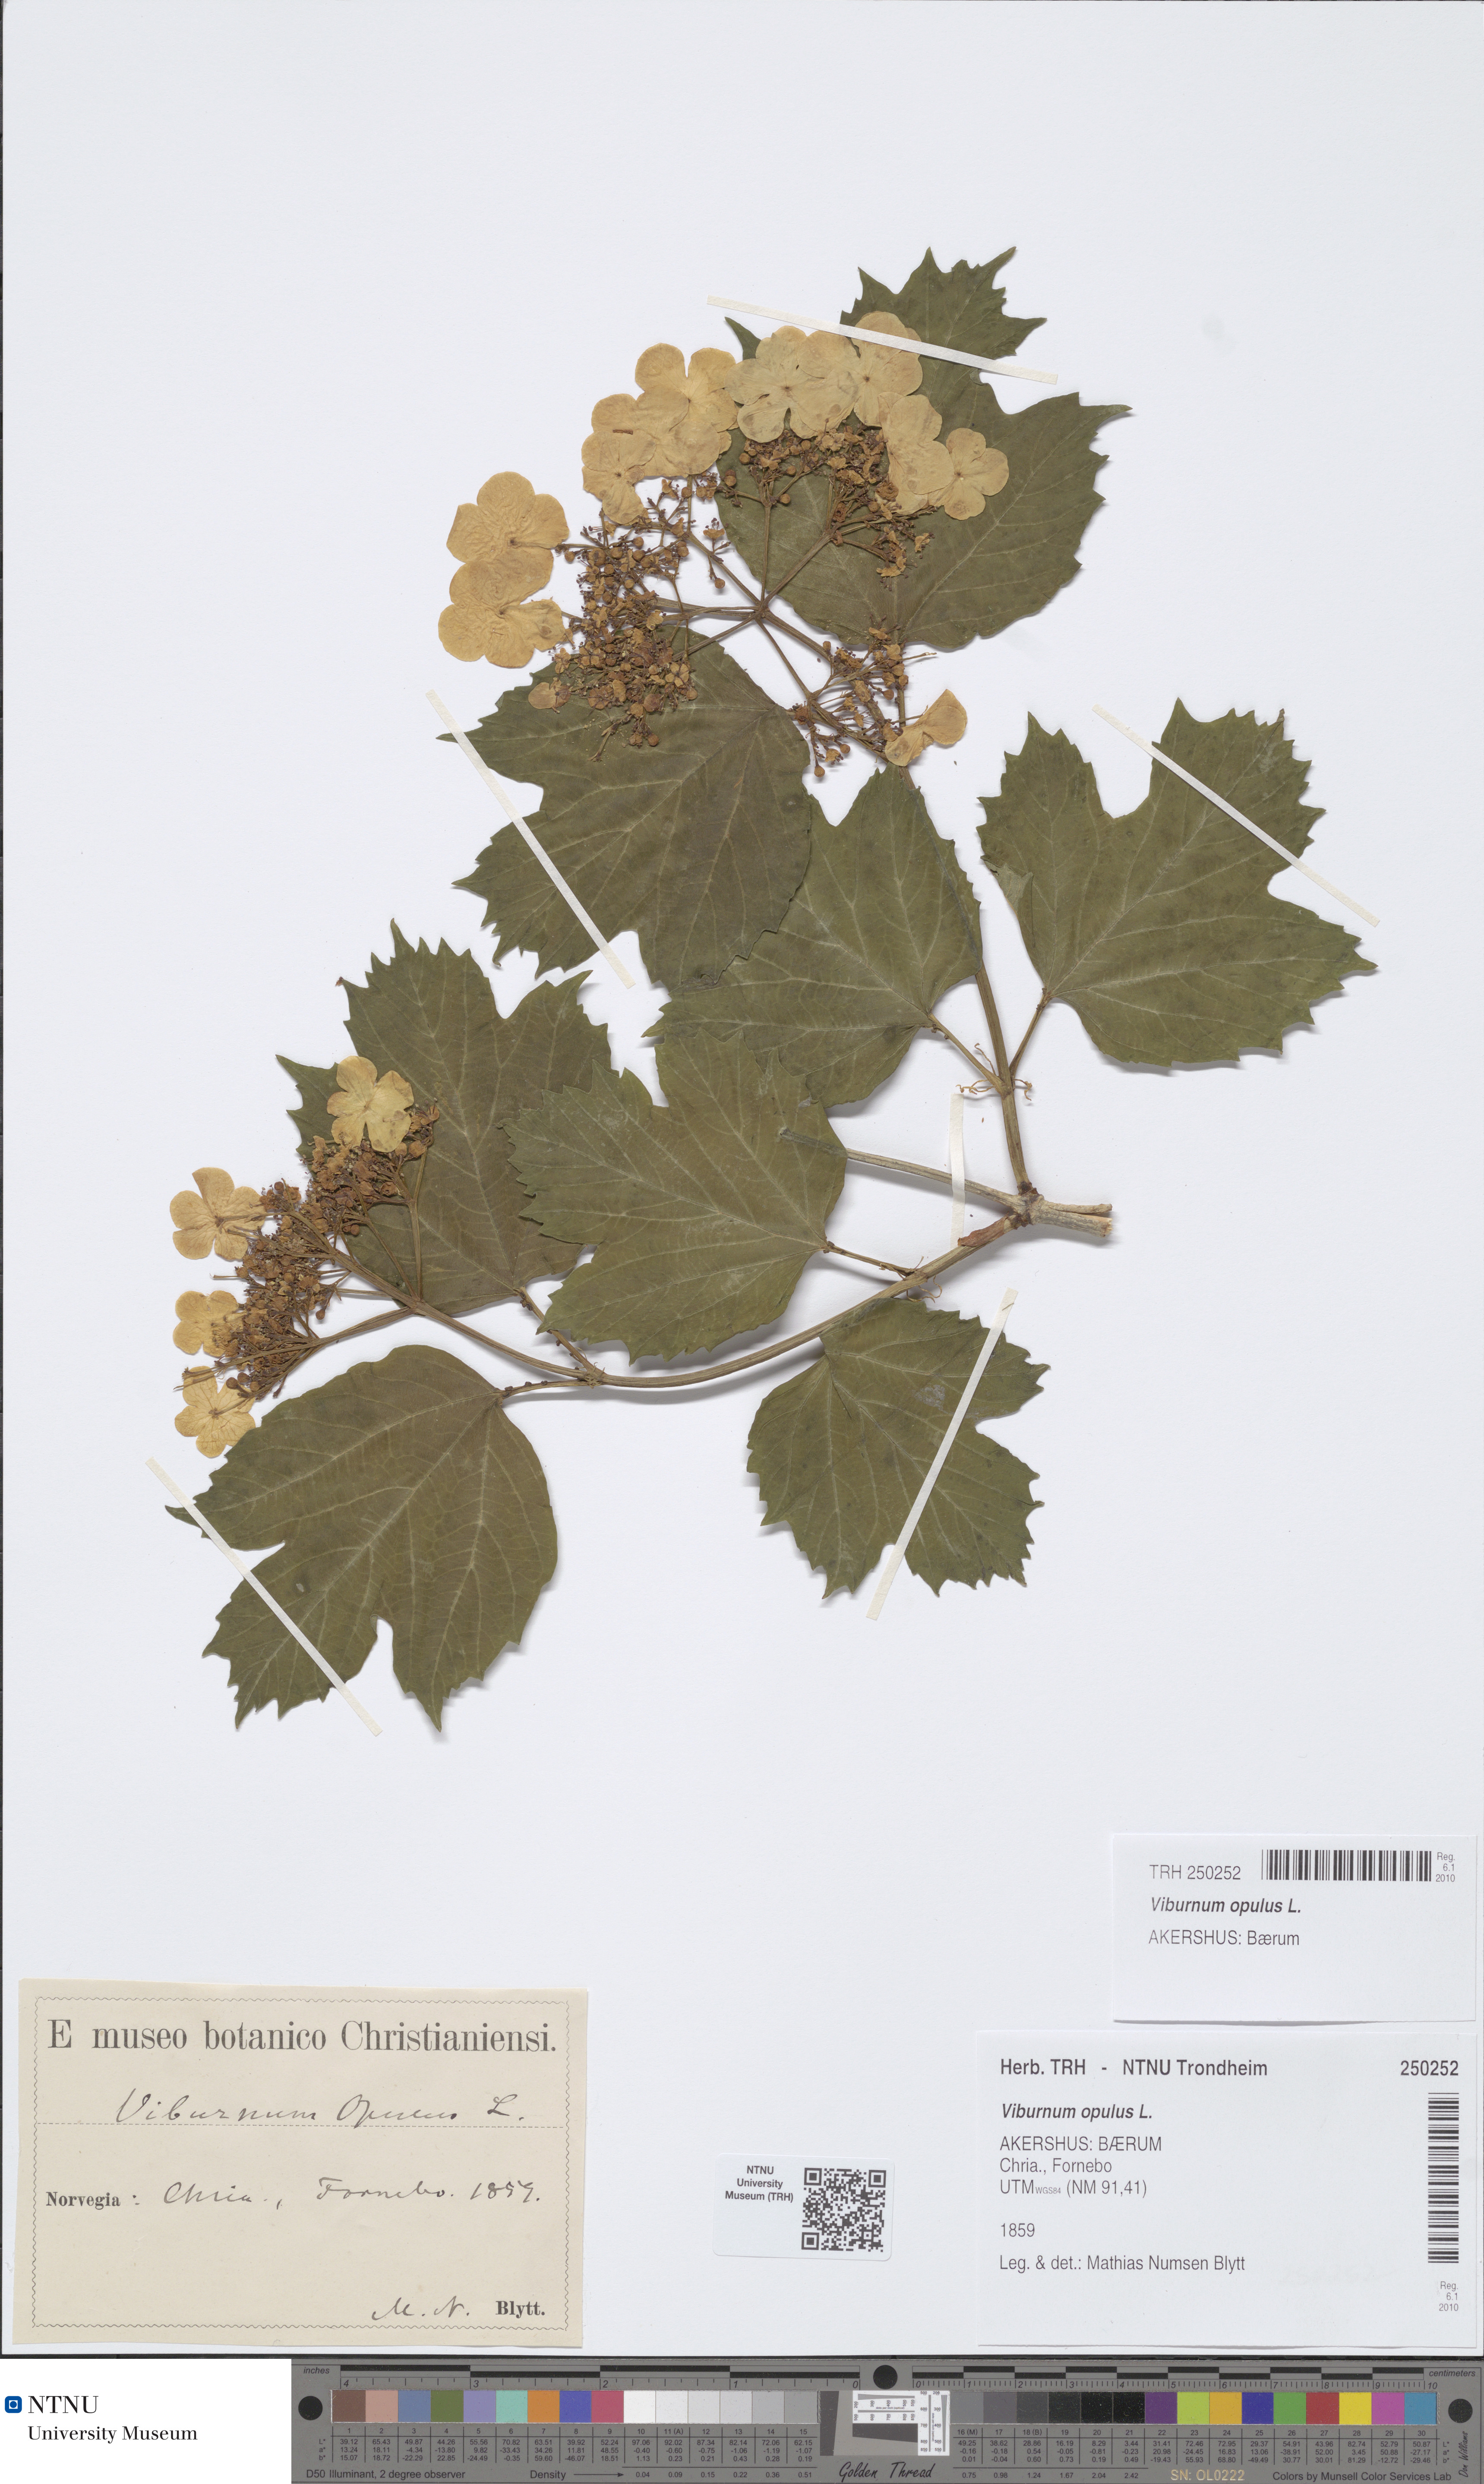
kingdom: Plantae
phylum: Tracheophyta
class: Magnoliopsida
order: Dipsacales
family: Viburnaceae
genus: Viburnum
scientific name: Viburnum opulus
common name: Guelder-rose
